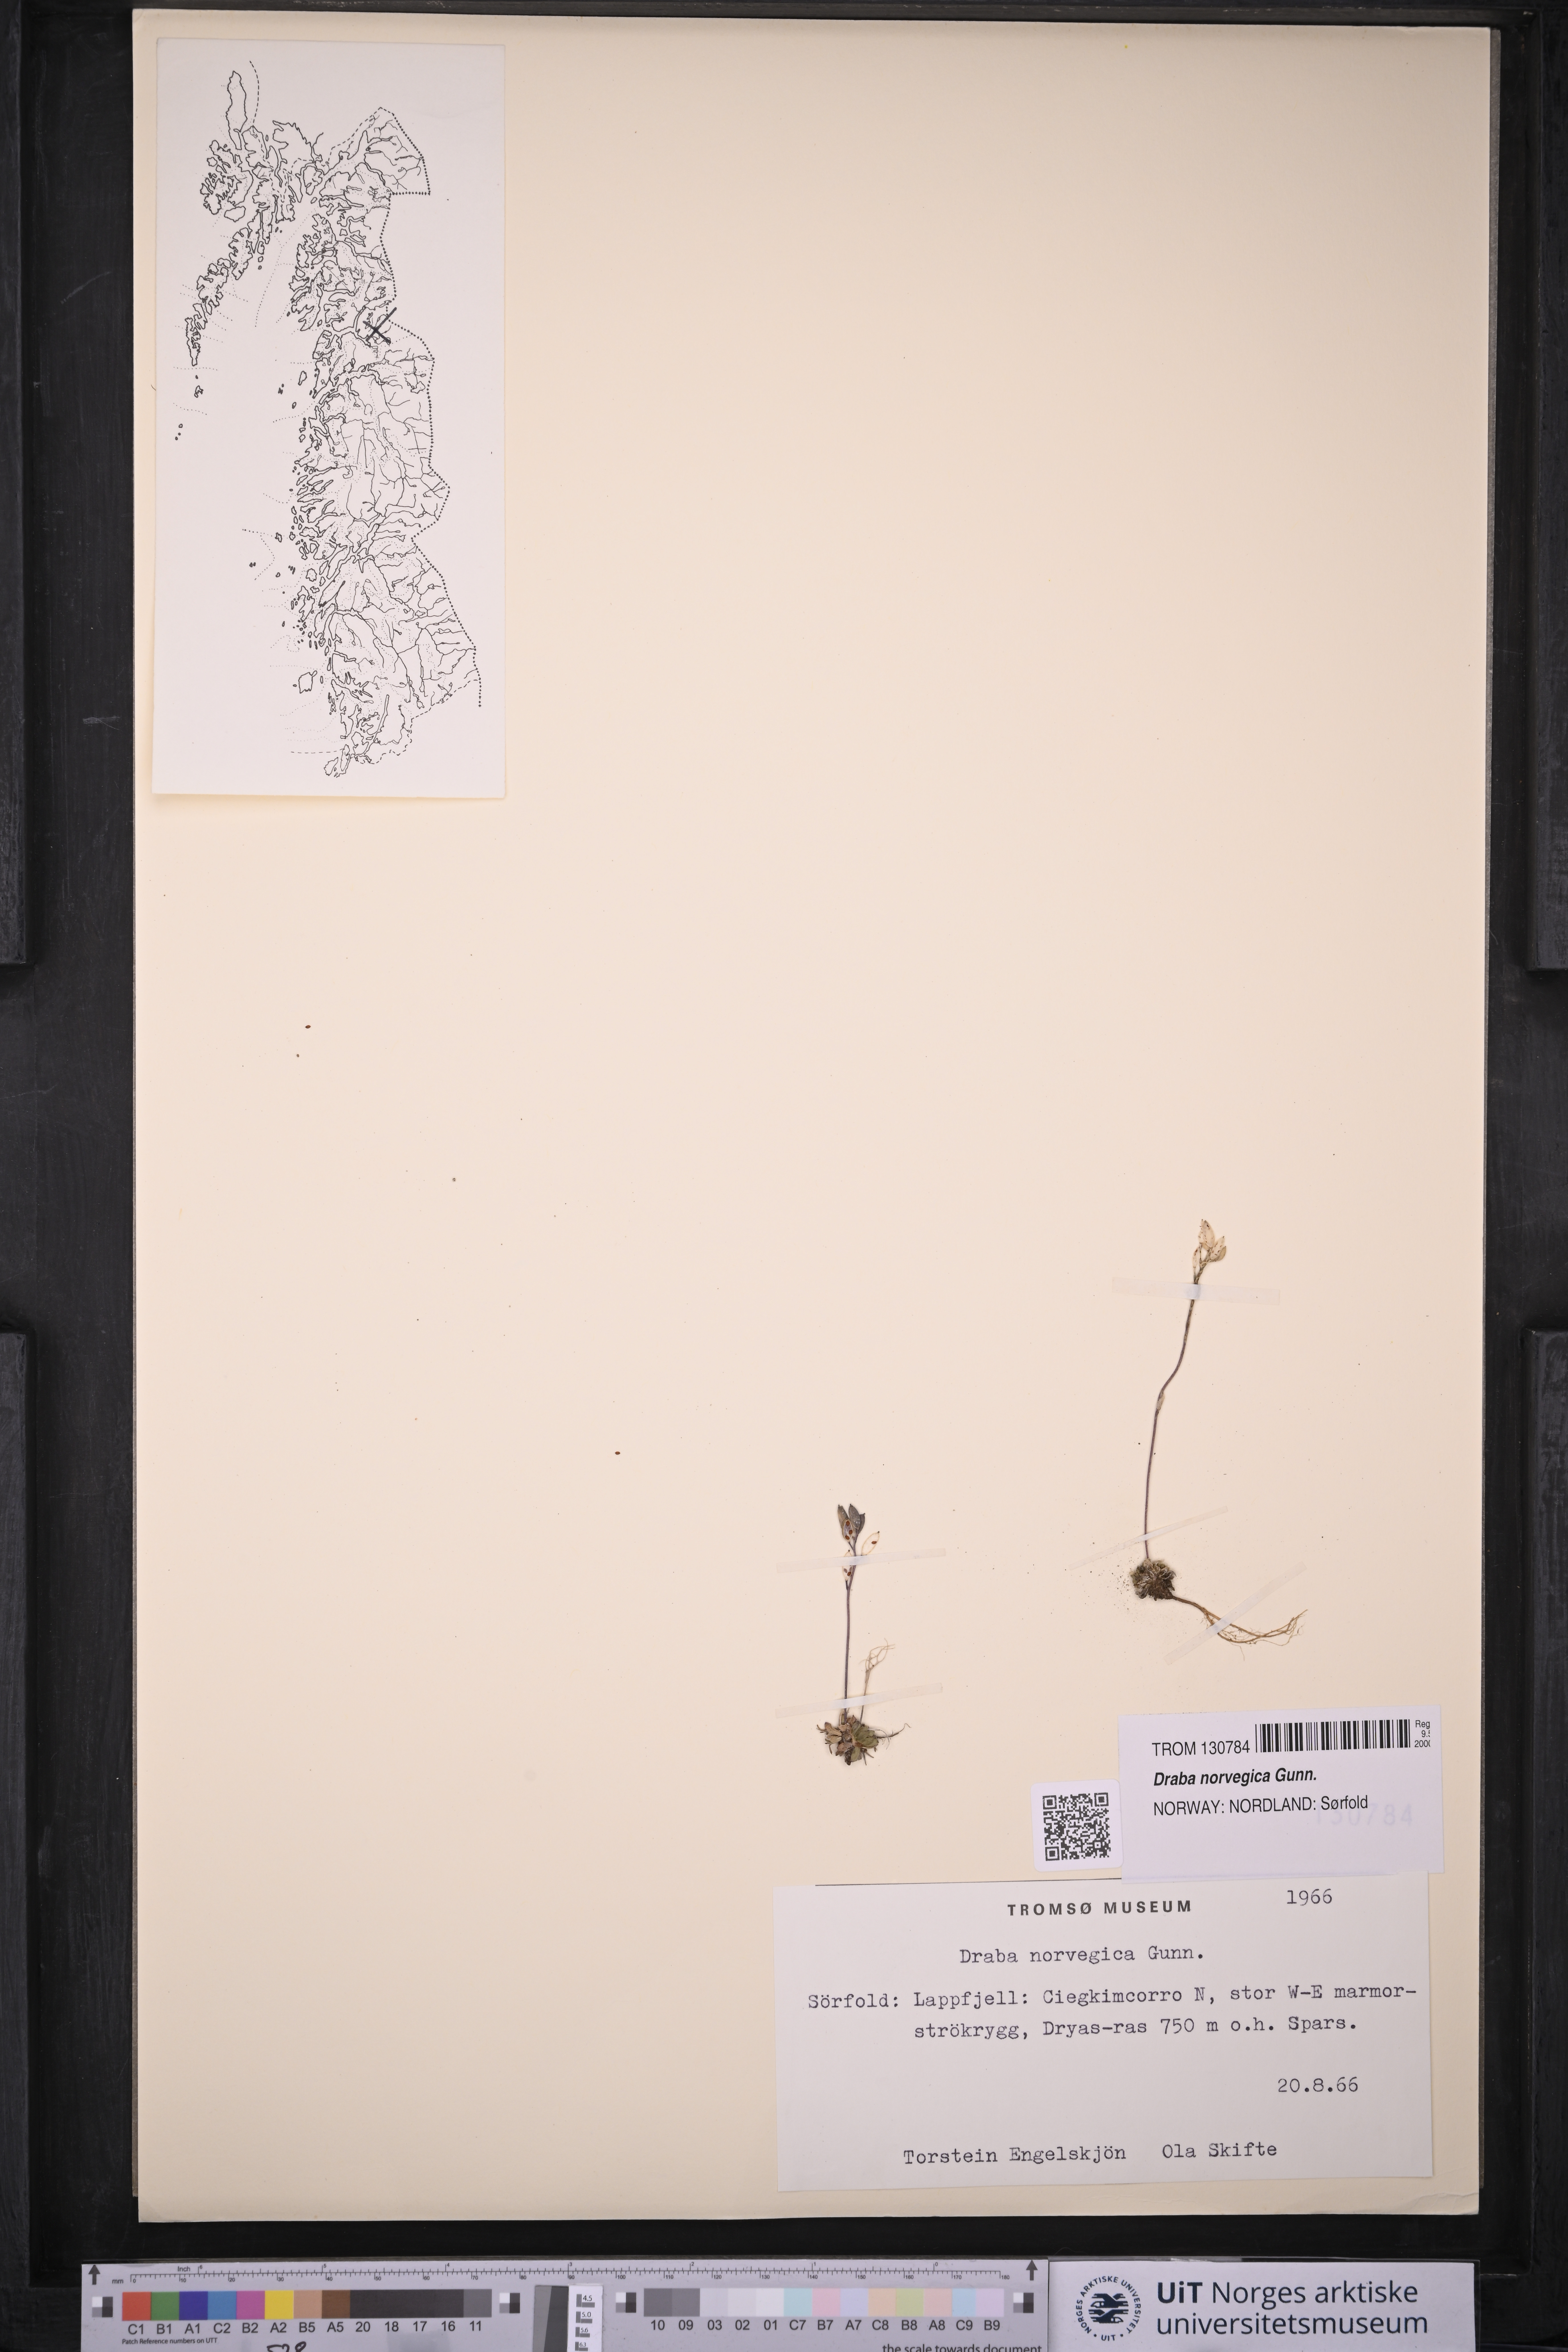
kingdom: Plantae
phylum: Tracheophyta
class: Magnoliopsida
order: Brassicales
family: Brassicaceae
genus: Draba
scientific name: Draba norvegica
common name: Rock whitlowgrass
